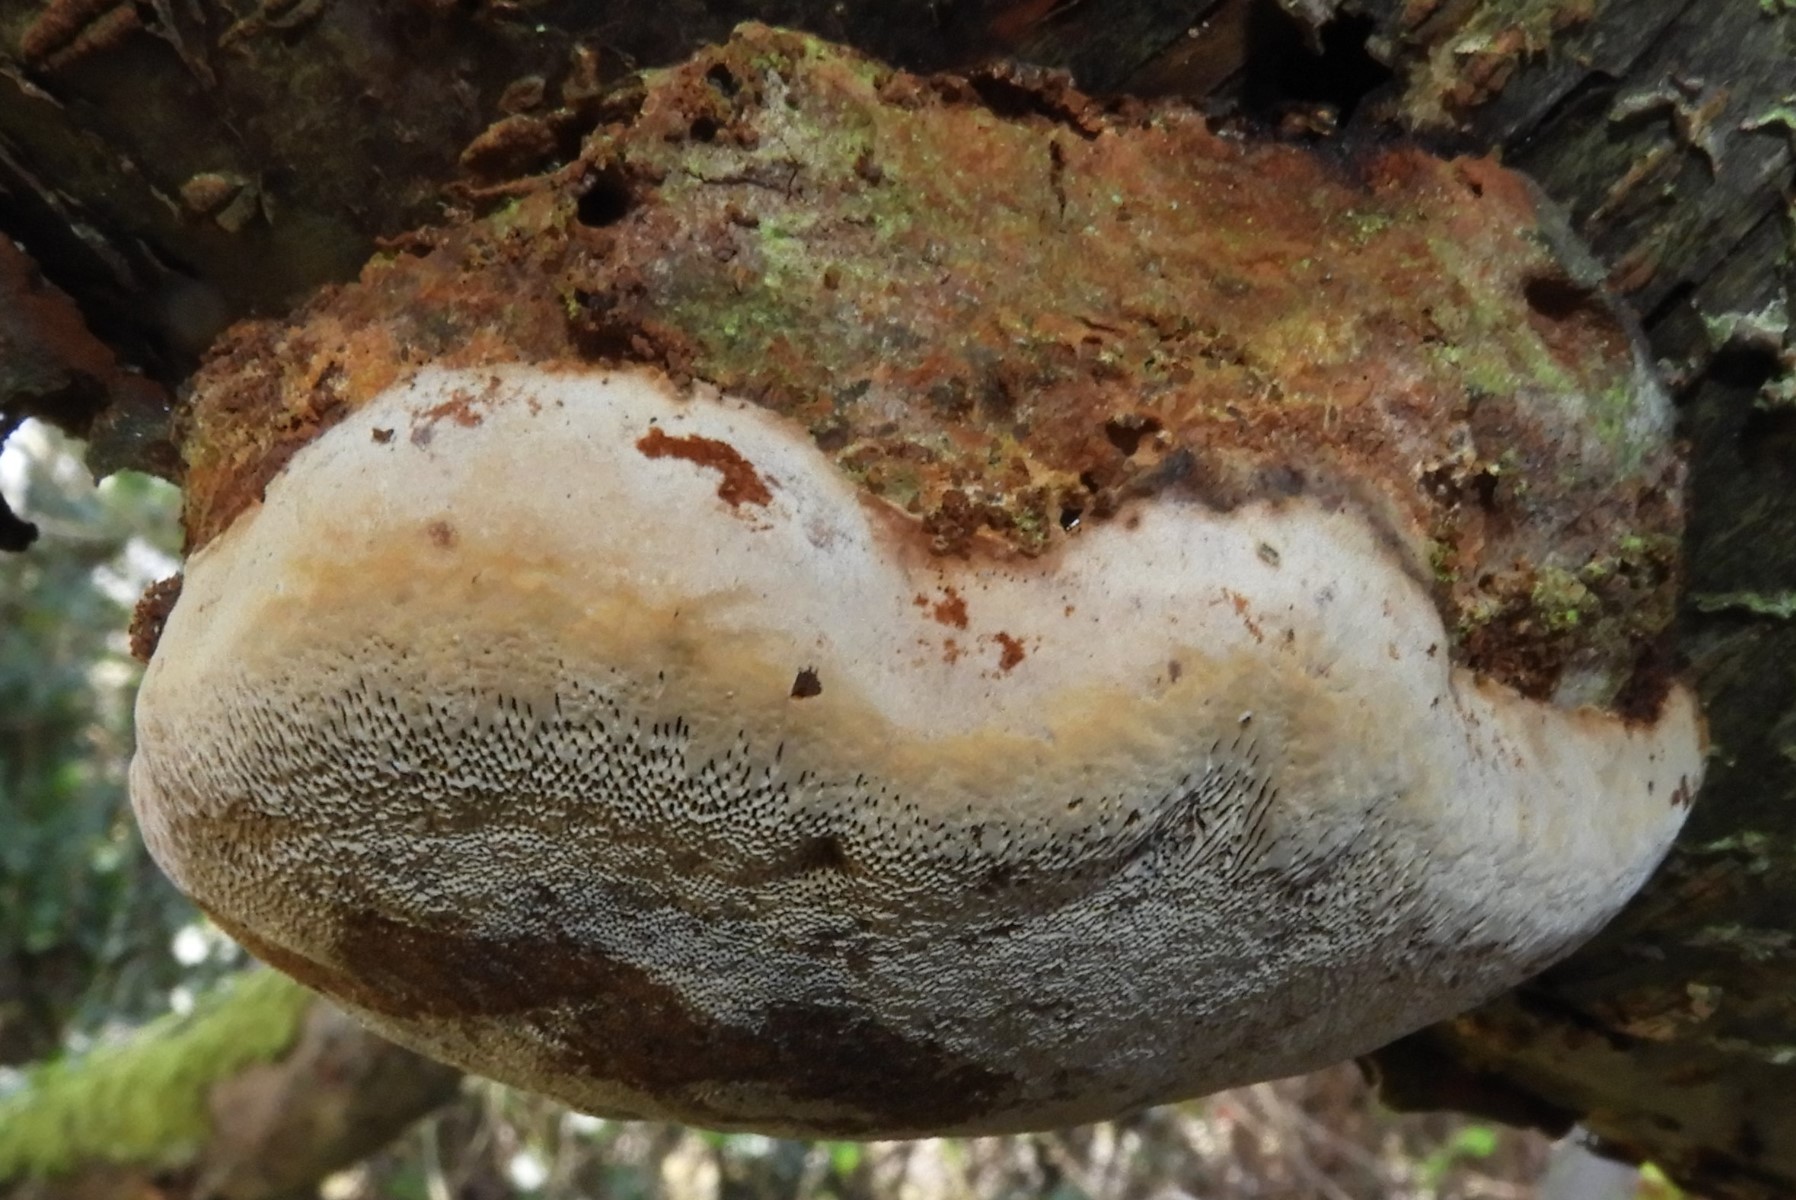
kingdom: Fungi
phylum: Basidiomycota
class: Agaricomycetes
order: Hymenochaetales
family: Hymenochaetaceae
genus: Phellinus
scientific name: Phellinus pomaceus
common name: blomme-ildporesvamp
